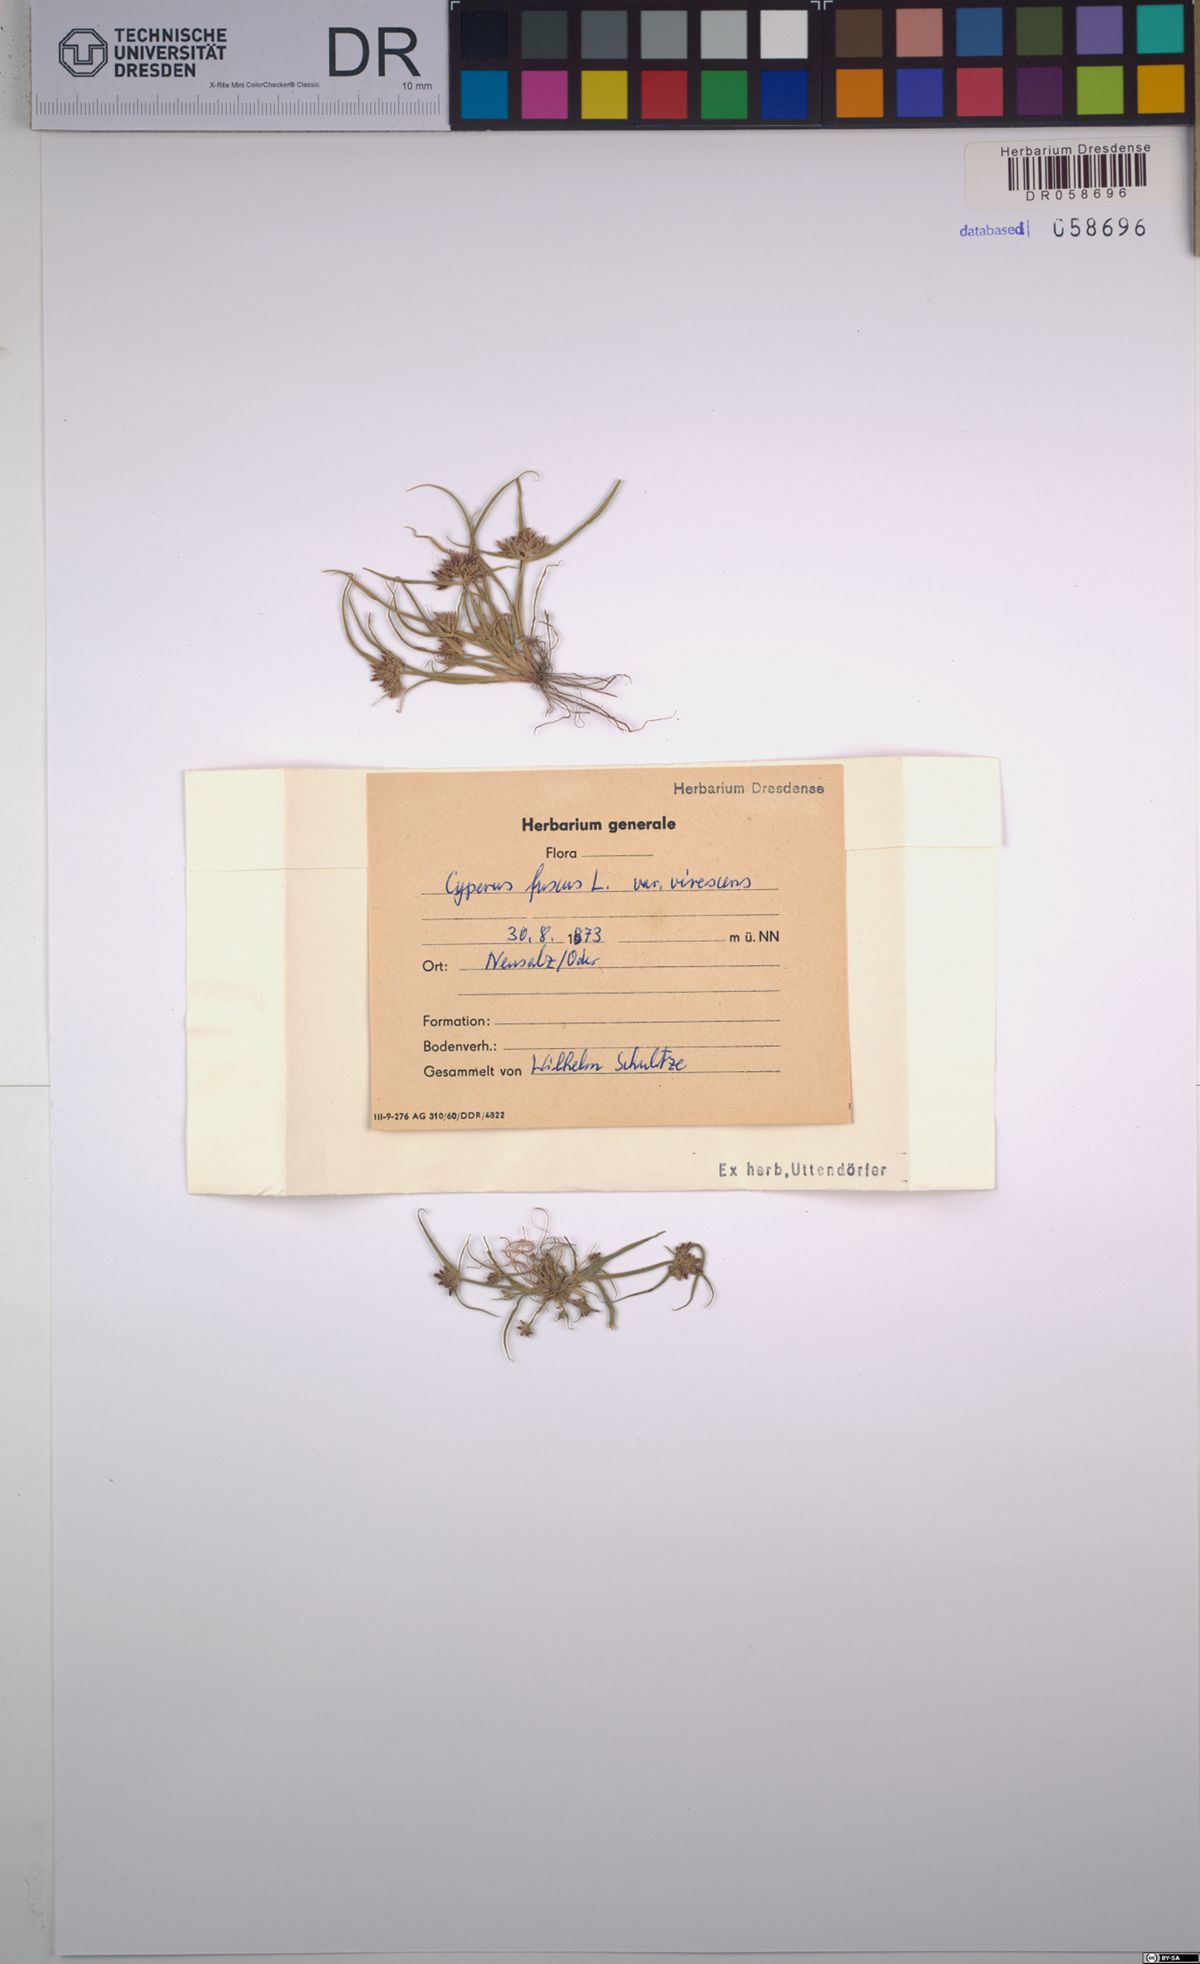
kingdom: Plantae
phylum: Tracheophyta
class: Liliopsida
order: Poales
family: Cyperaceae
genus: Cyperus
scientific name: Cyperus fuscus
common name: Brown galingale
